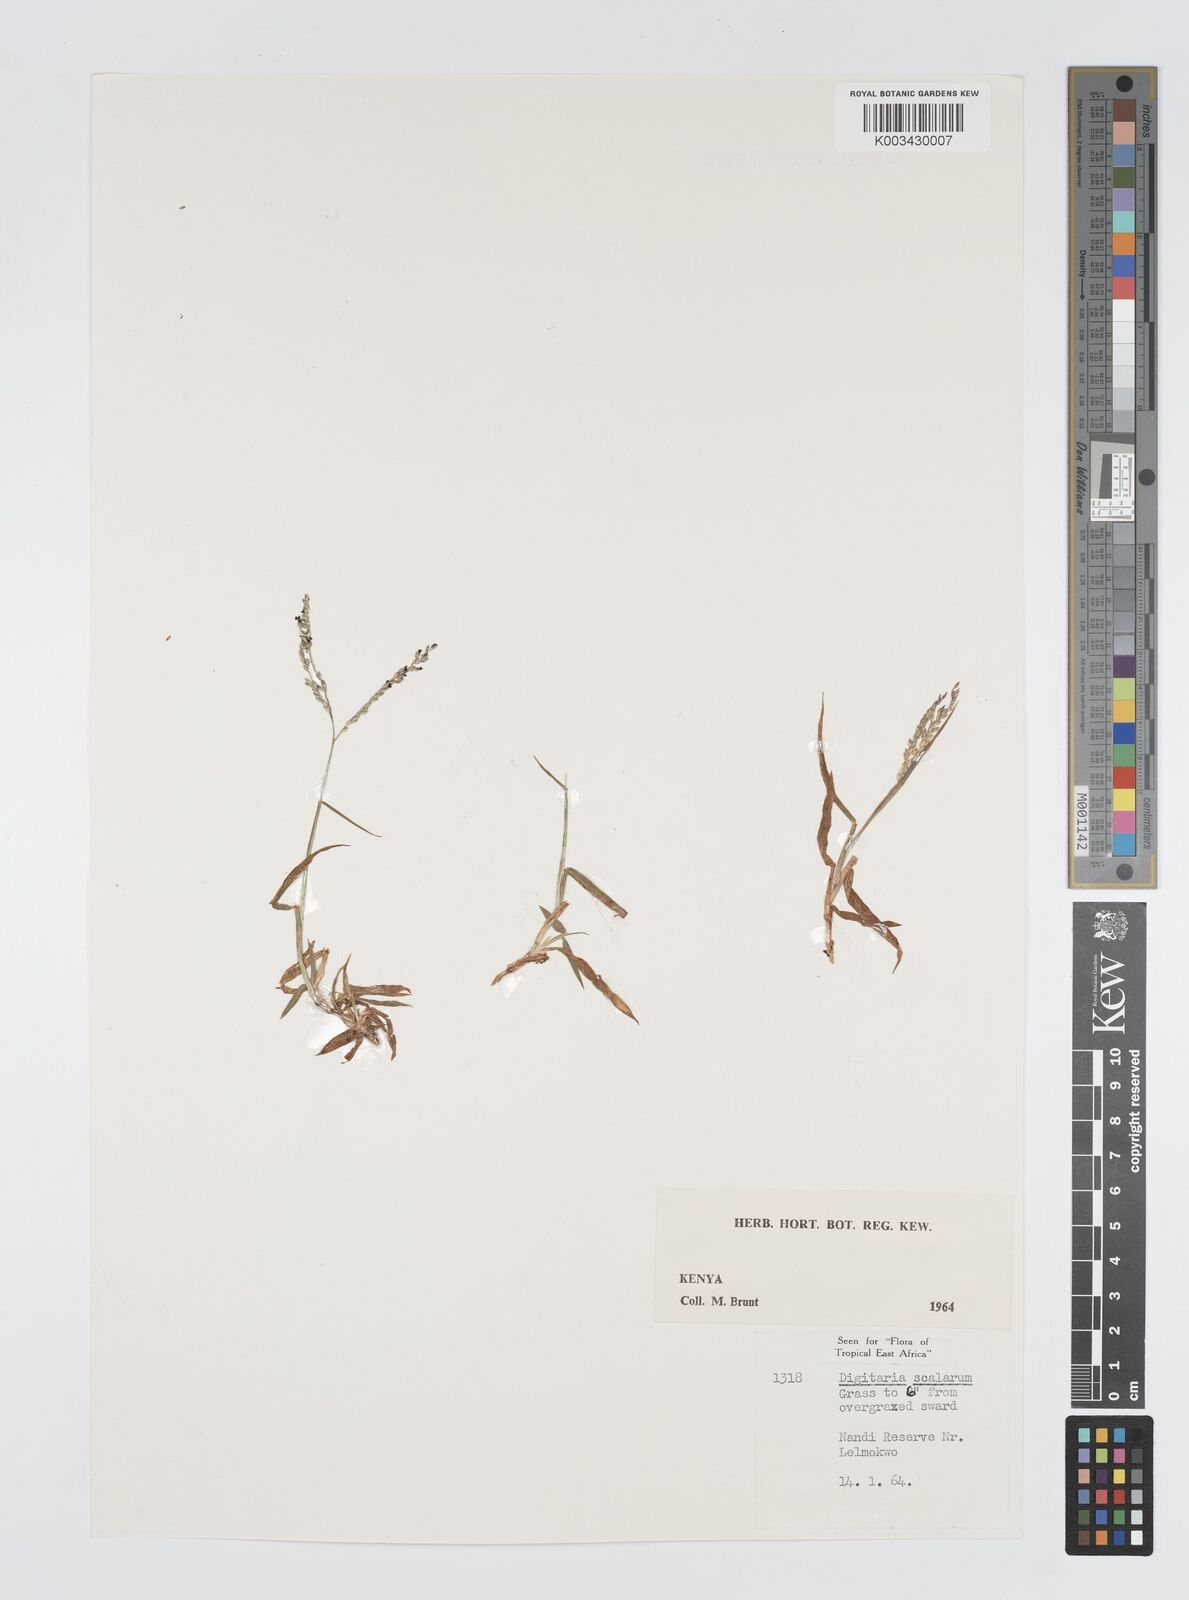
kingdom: Plantae
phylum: Tracheophyta
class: Liliopsida
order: Poales
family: Poaceae
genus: Digitaria
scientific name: Digitaria abyssinica
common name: African couchgrass
